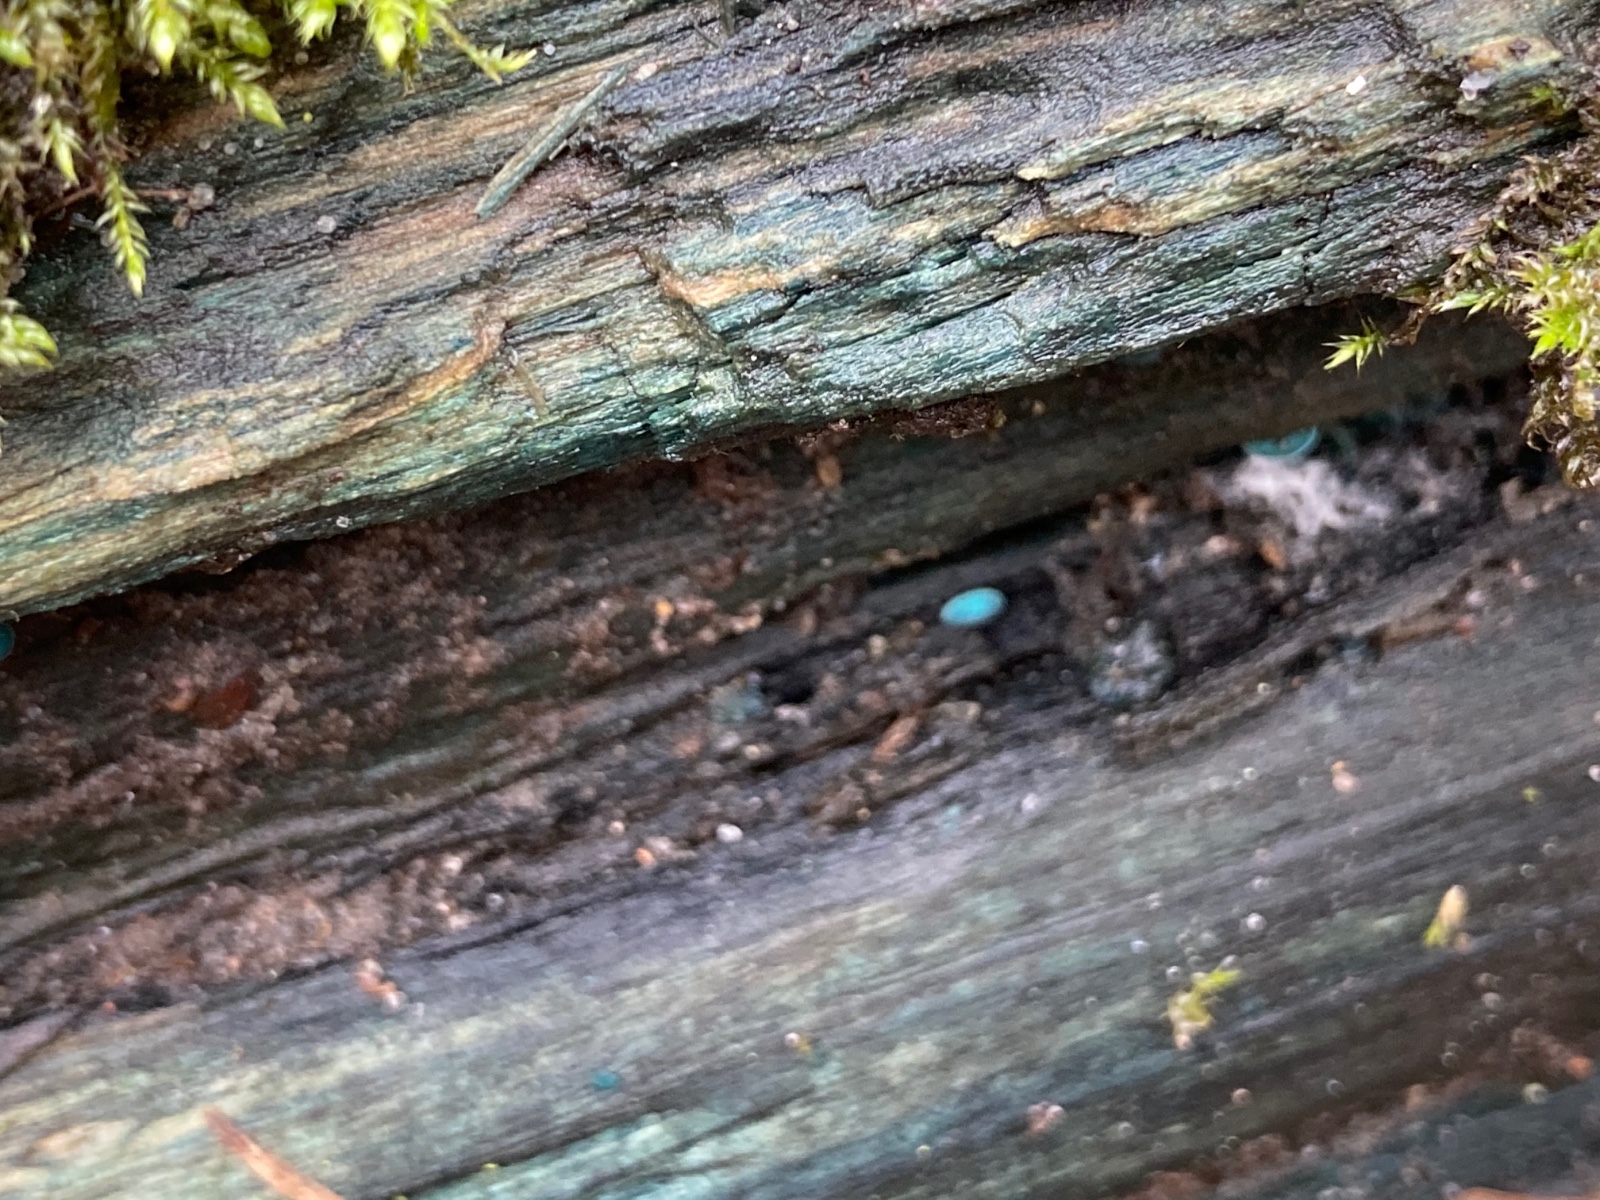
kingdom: Fungi
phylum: Ascomycota
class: Leotiomycetes
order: Helotiales
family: Chlorociboriaceae
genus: Chlorociboria
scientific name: Chlorociboria aeruginascens
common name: almindelig grønskive
